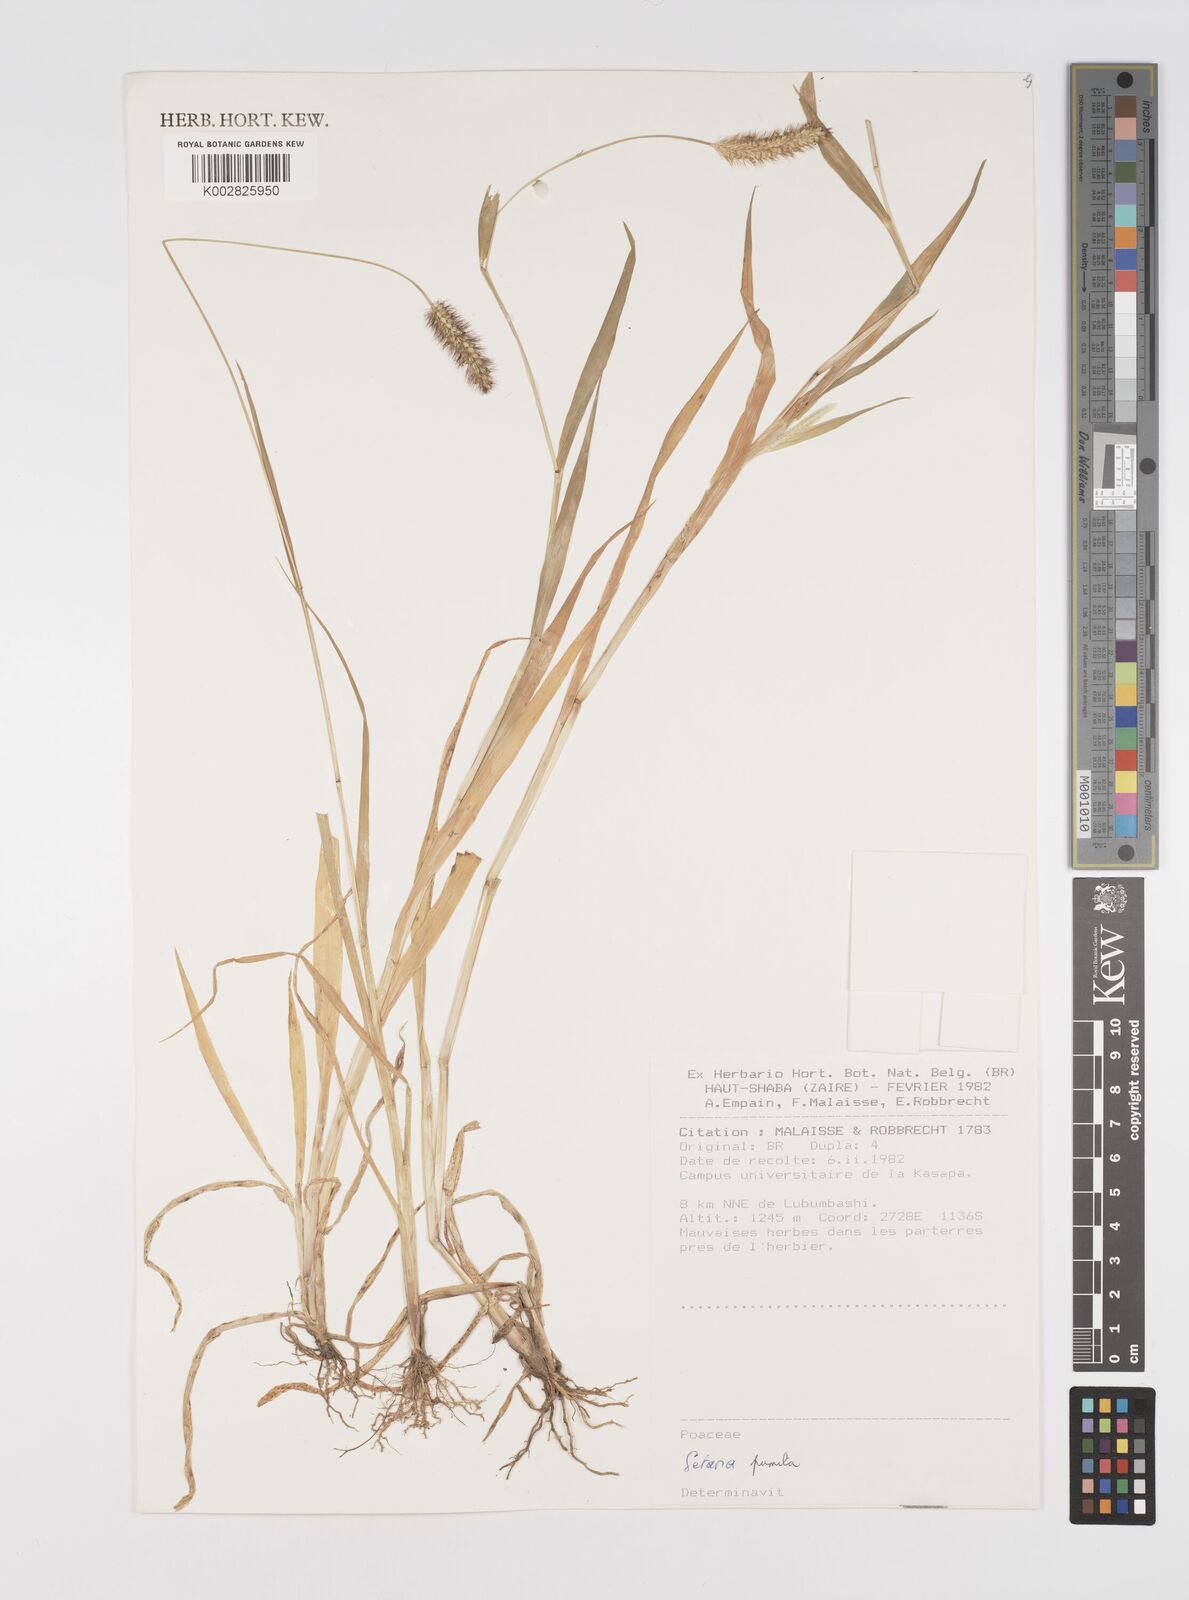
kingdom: Plantae
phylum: Tracheophyta
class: Liliopsida
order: Poales
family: Poaceae
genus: Setaria
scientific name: Setaria pumila
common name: Yellow bristle-grass
